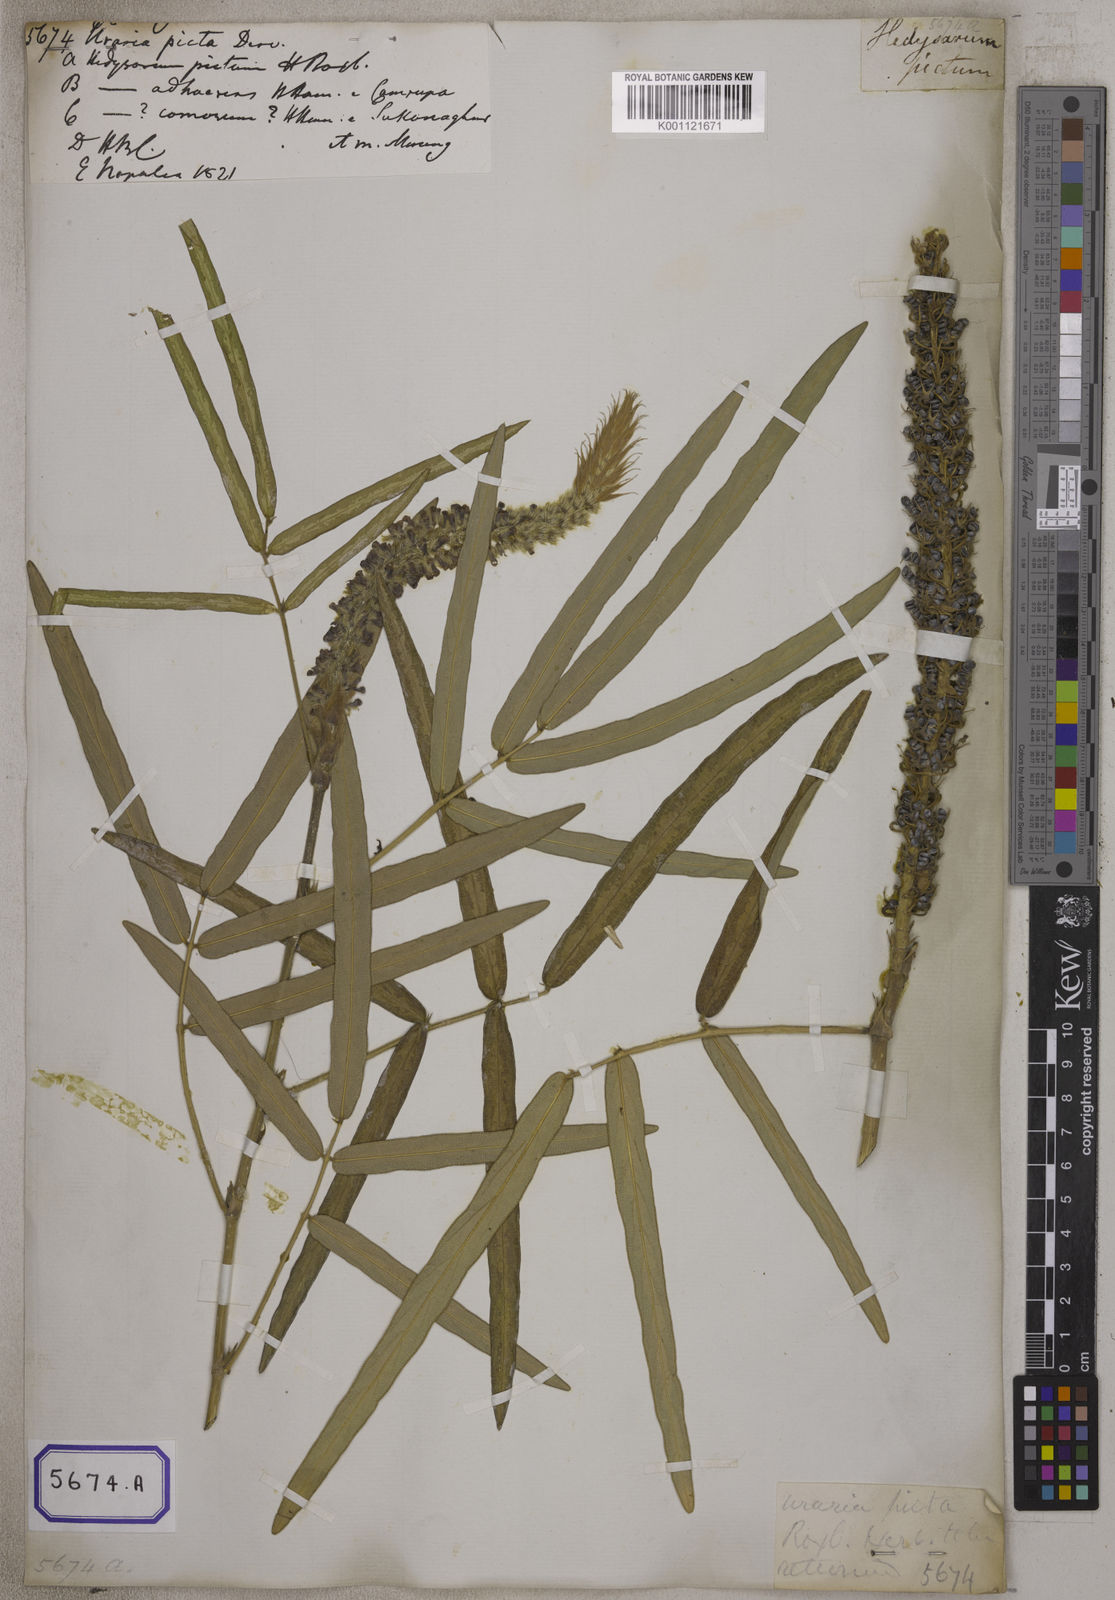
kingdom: Plantae
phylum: Tracheophyta
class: Magnoliopsida
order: Fabales
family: Fabaceae
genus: Uraria
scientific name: Uraria
